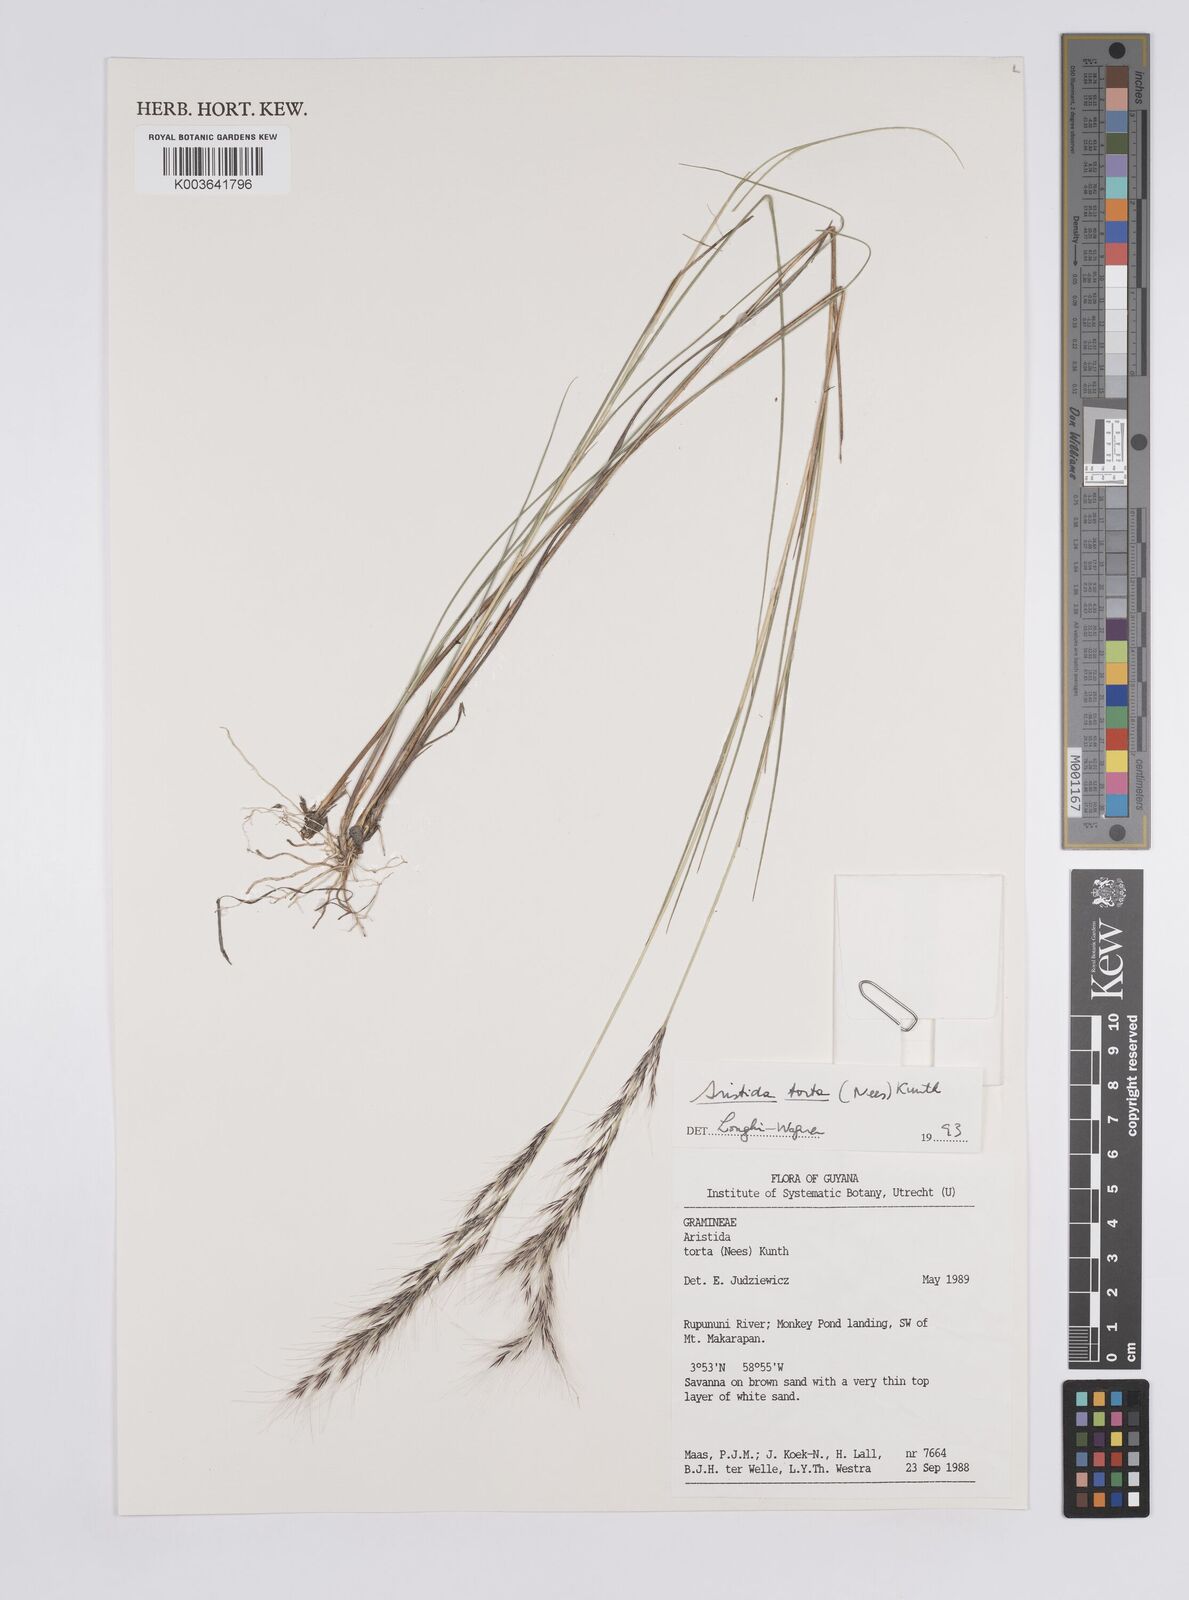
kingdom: Plantae
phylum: Tracheophyta
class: Liliopsida
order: Poales
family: Poaceae
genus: Aristida
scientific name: Aristida torta
